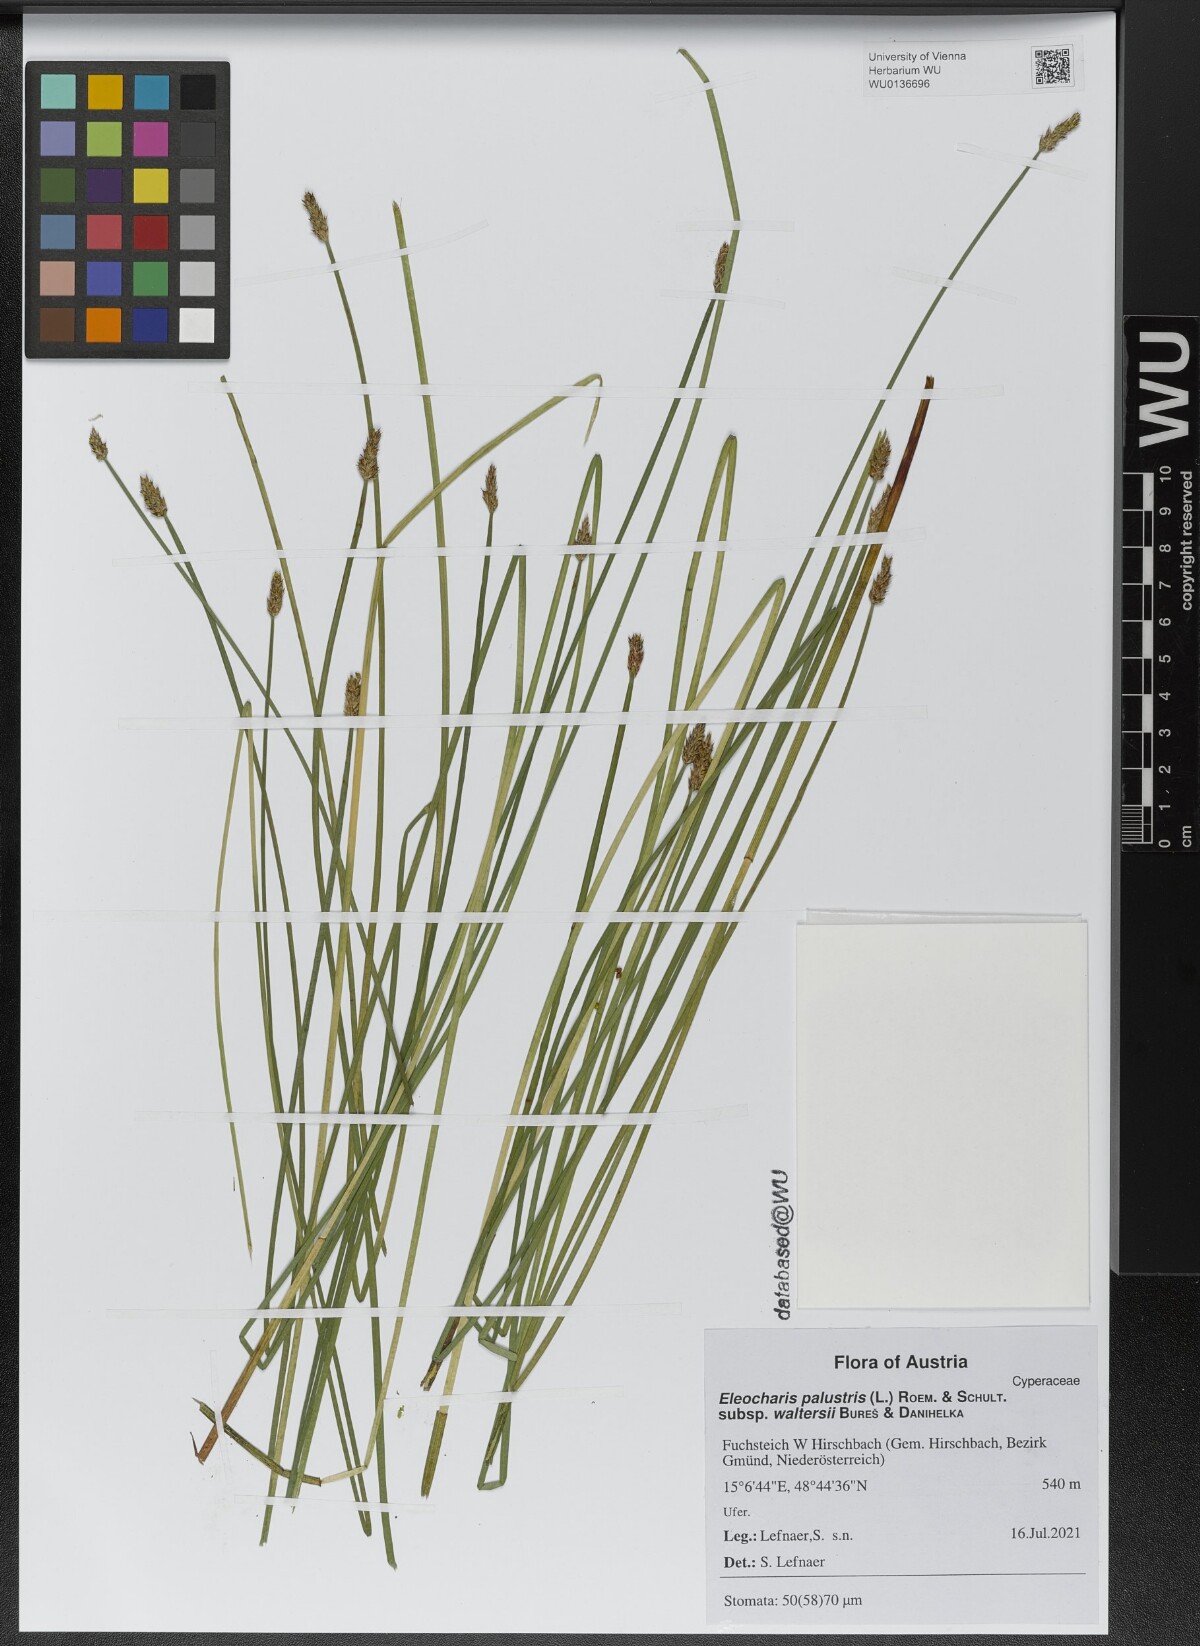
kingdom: Plantae
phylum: Tracheophyta
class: Liliopsida
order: Poales
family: Cyperaceae
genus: Eleocharis
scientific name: Eleocharis palustris
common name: Common spike-rush
